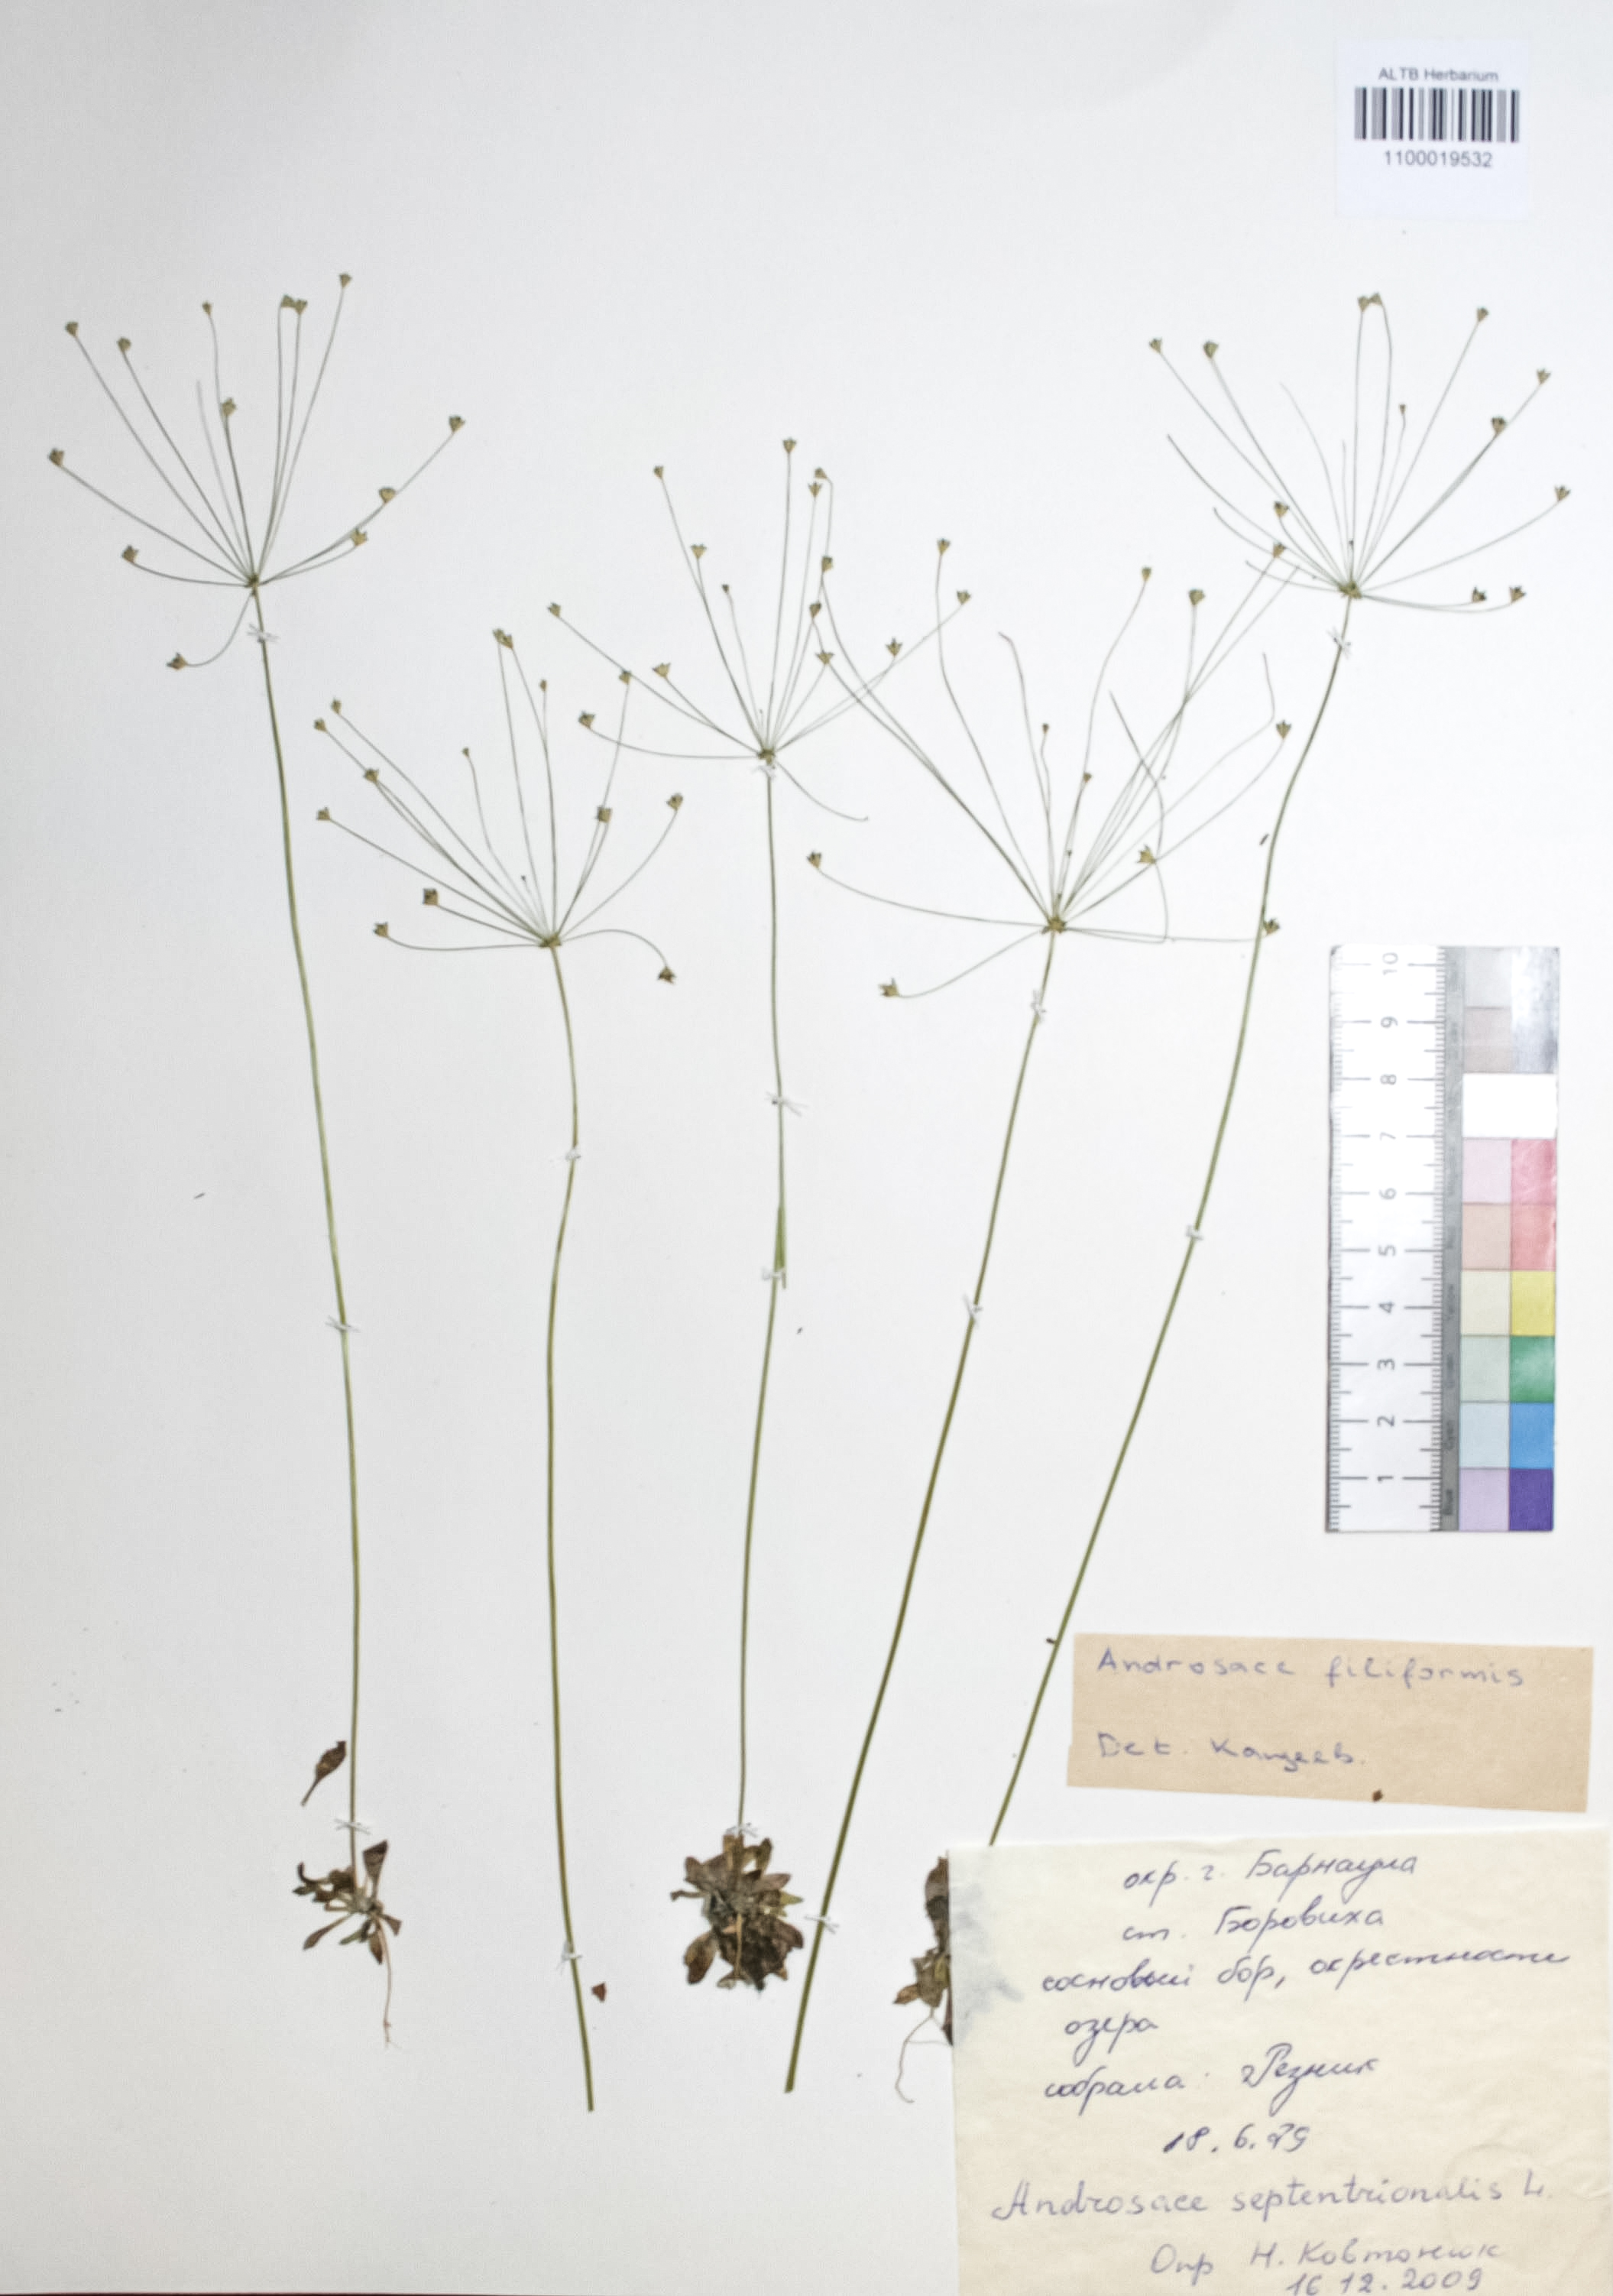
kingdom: Plantae
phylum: Tracheophyta
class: Magnoliopsida
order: Ericales
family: Primulaceae
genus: Androsace
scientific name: Androsace septentrionalis
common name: Hairy northern fairy-candelabra
